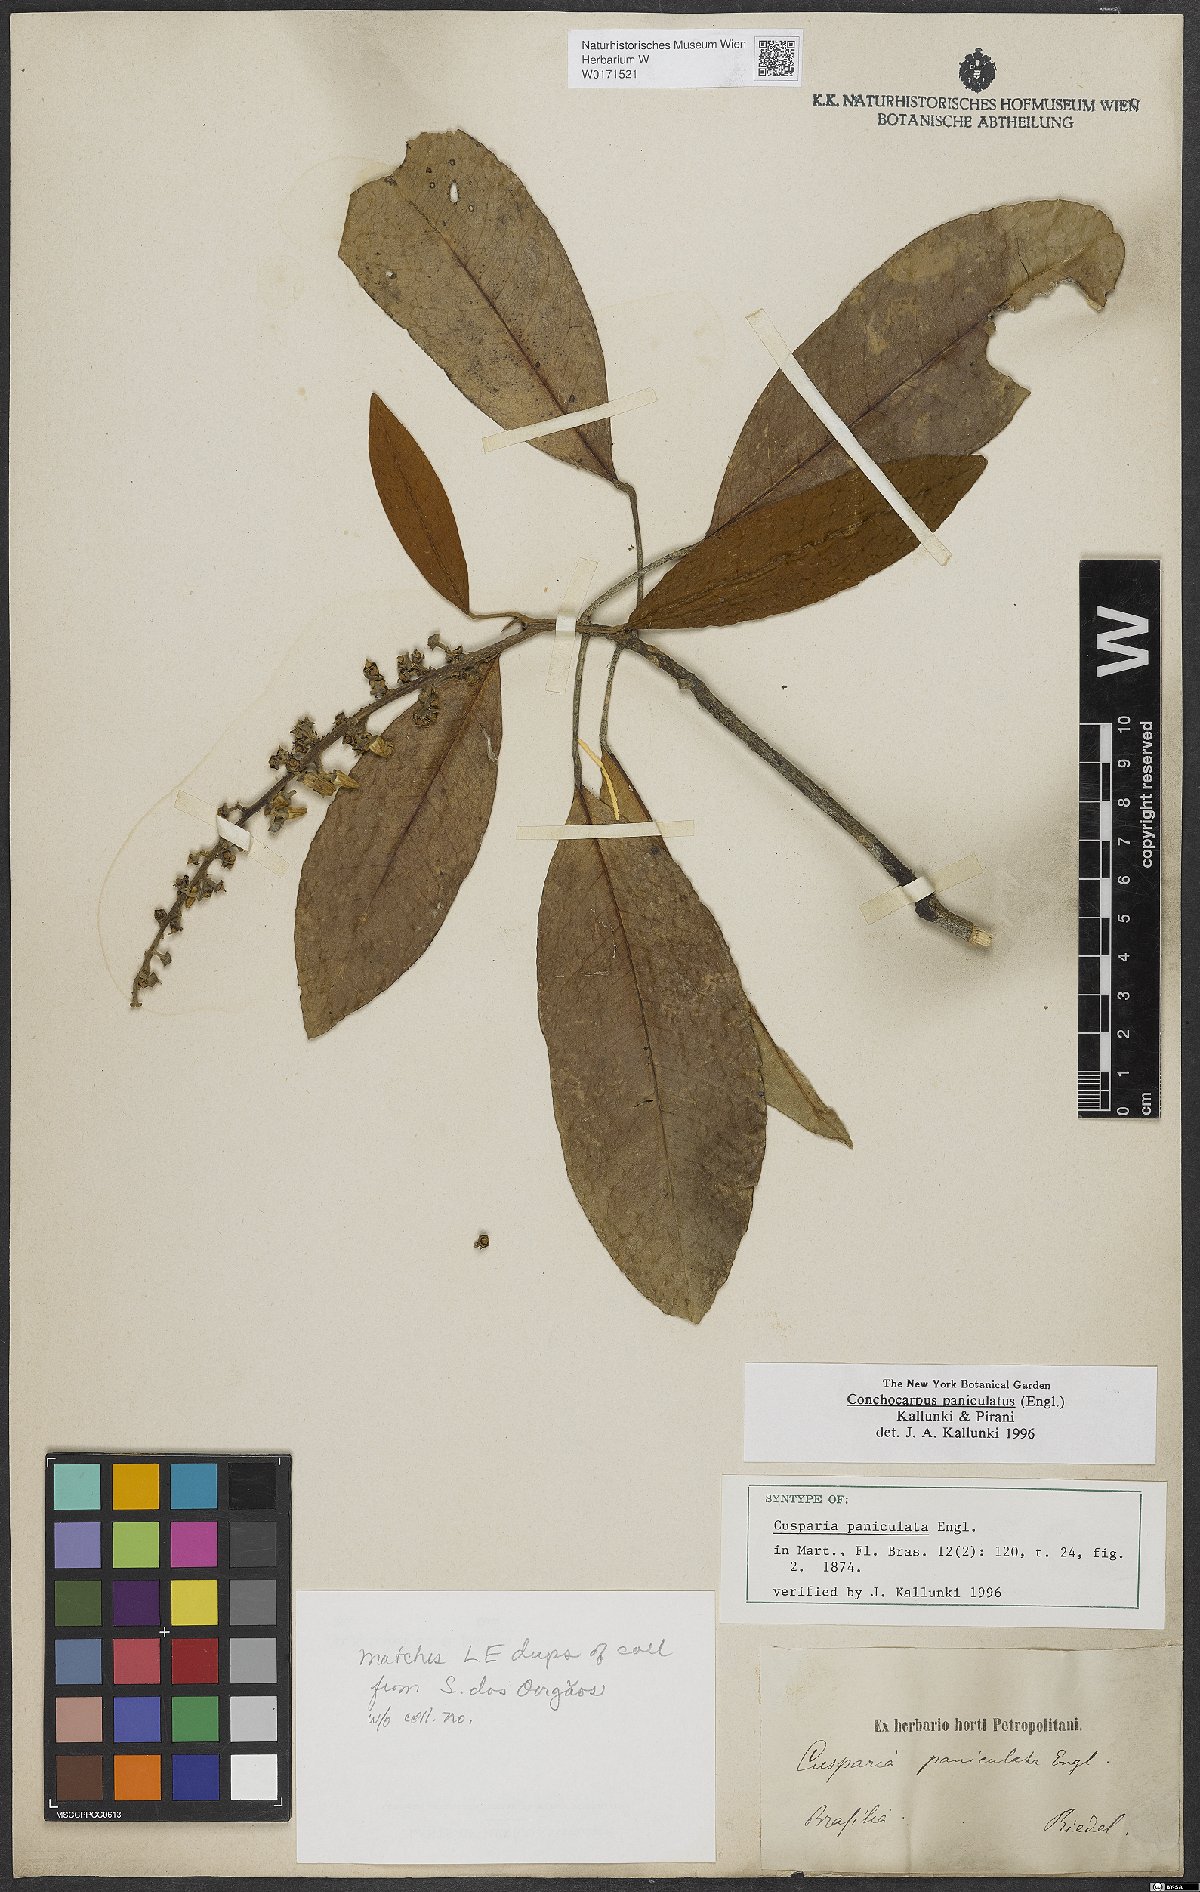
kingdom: Plantae
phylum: Tracheophyta
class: Magnoliopsida
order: Sapindales
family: Rutaceae
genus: Conchocarpus
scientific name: Conchocarpus paniculatus
